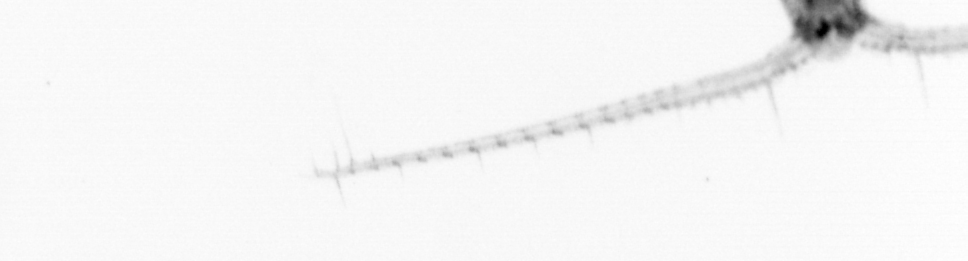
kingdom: Animalia
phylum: Arthropoda
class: Copepoda
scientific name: Copepoda
